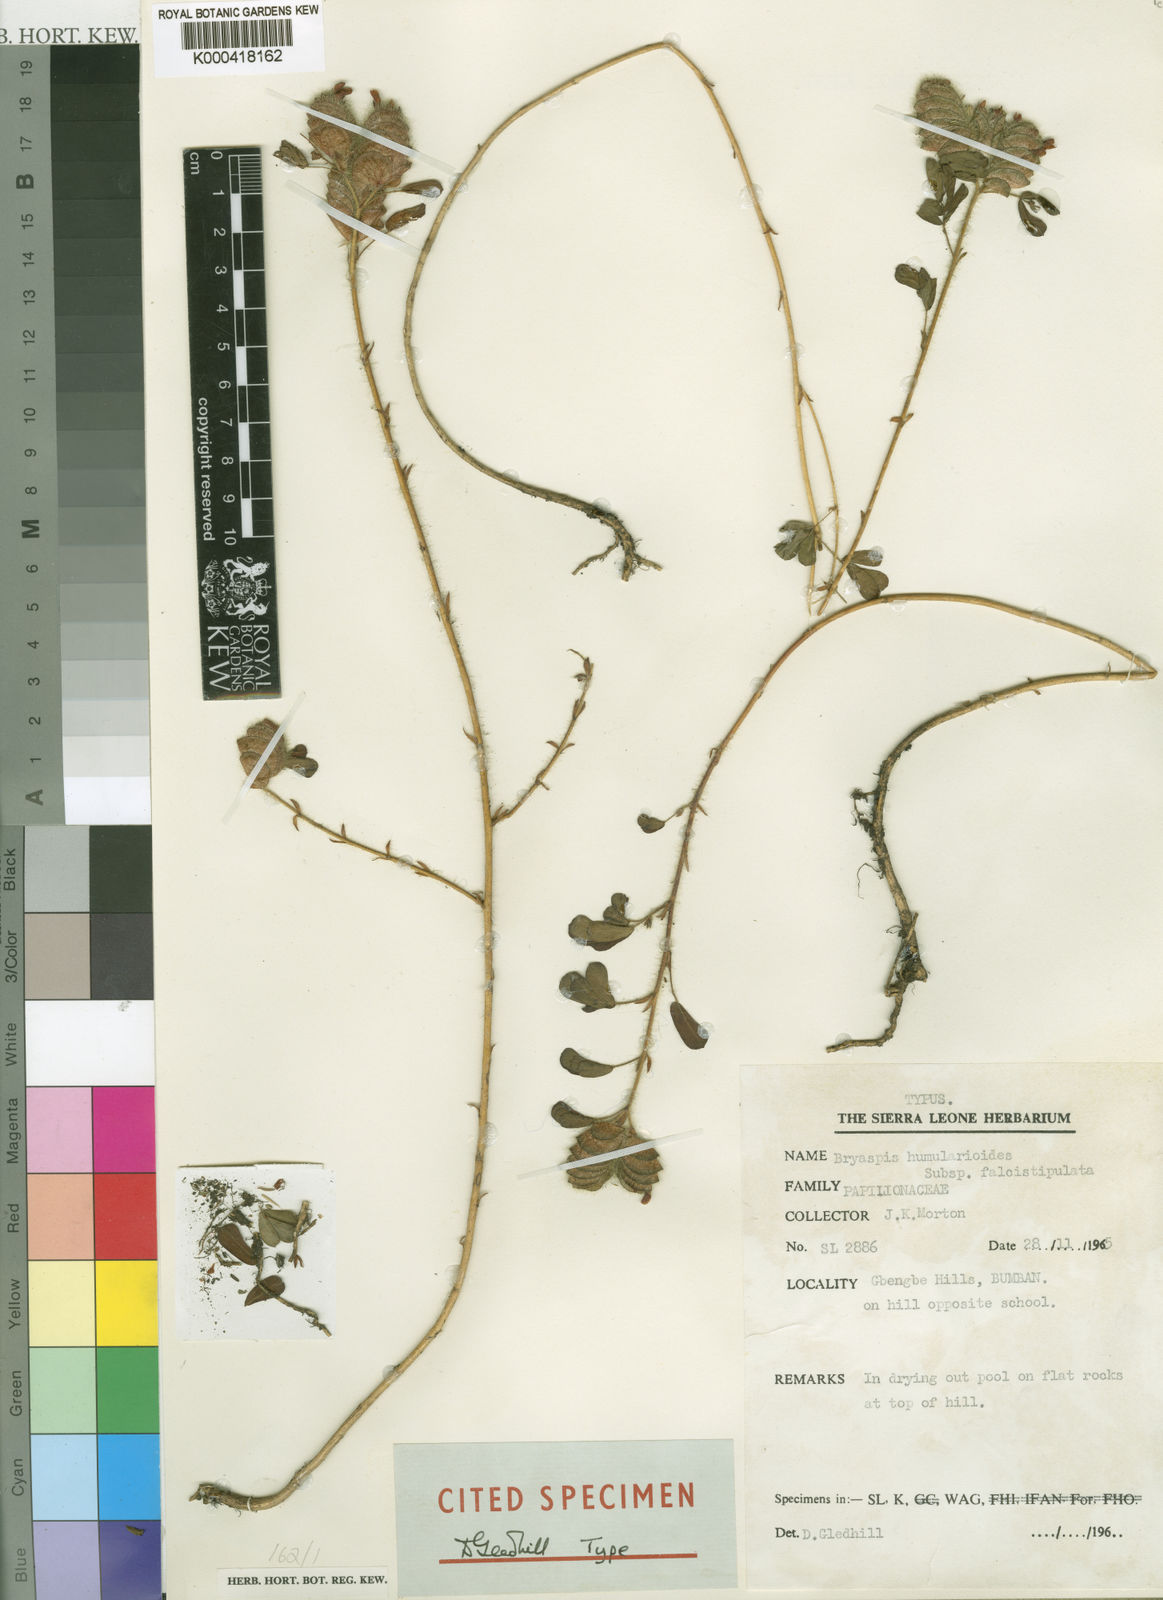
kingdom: Plantae
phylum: Tracheophyta
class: Magnoliopsida
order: Fabales
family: Fabaceae
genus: Bryaspis
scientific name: Bryaspis humularioides
